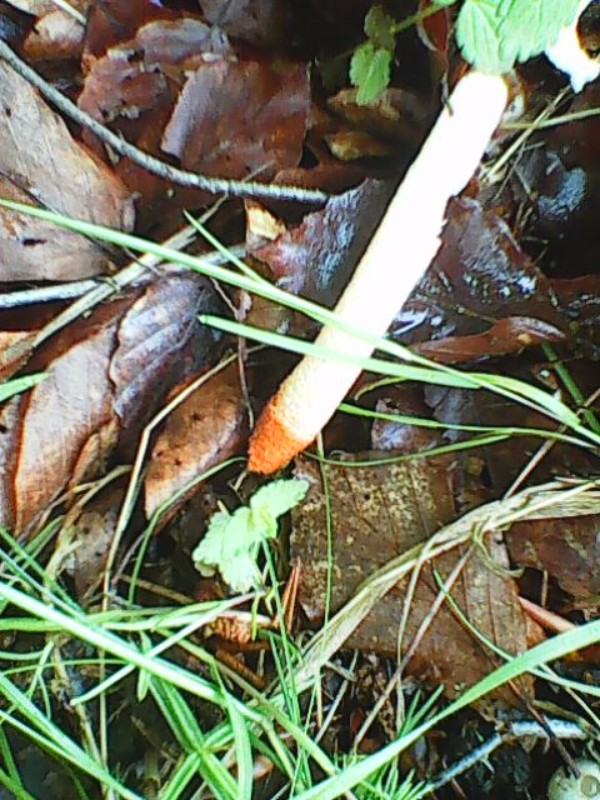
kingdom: Fungi
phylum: Basidiomycota
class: Agaricomycetes
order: Phallales
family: Phallaceae
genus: Mutinus
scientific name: Mutinus caninus
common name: hunde-stinksvamp
